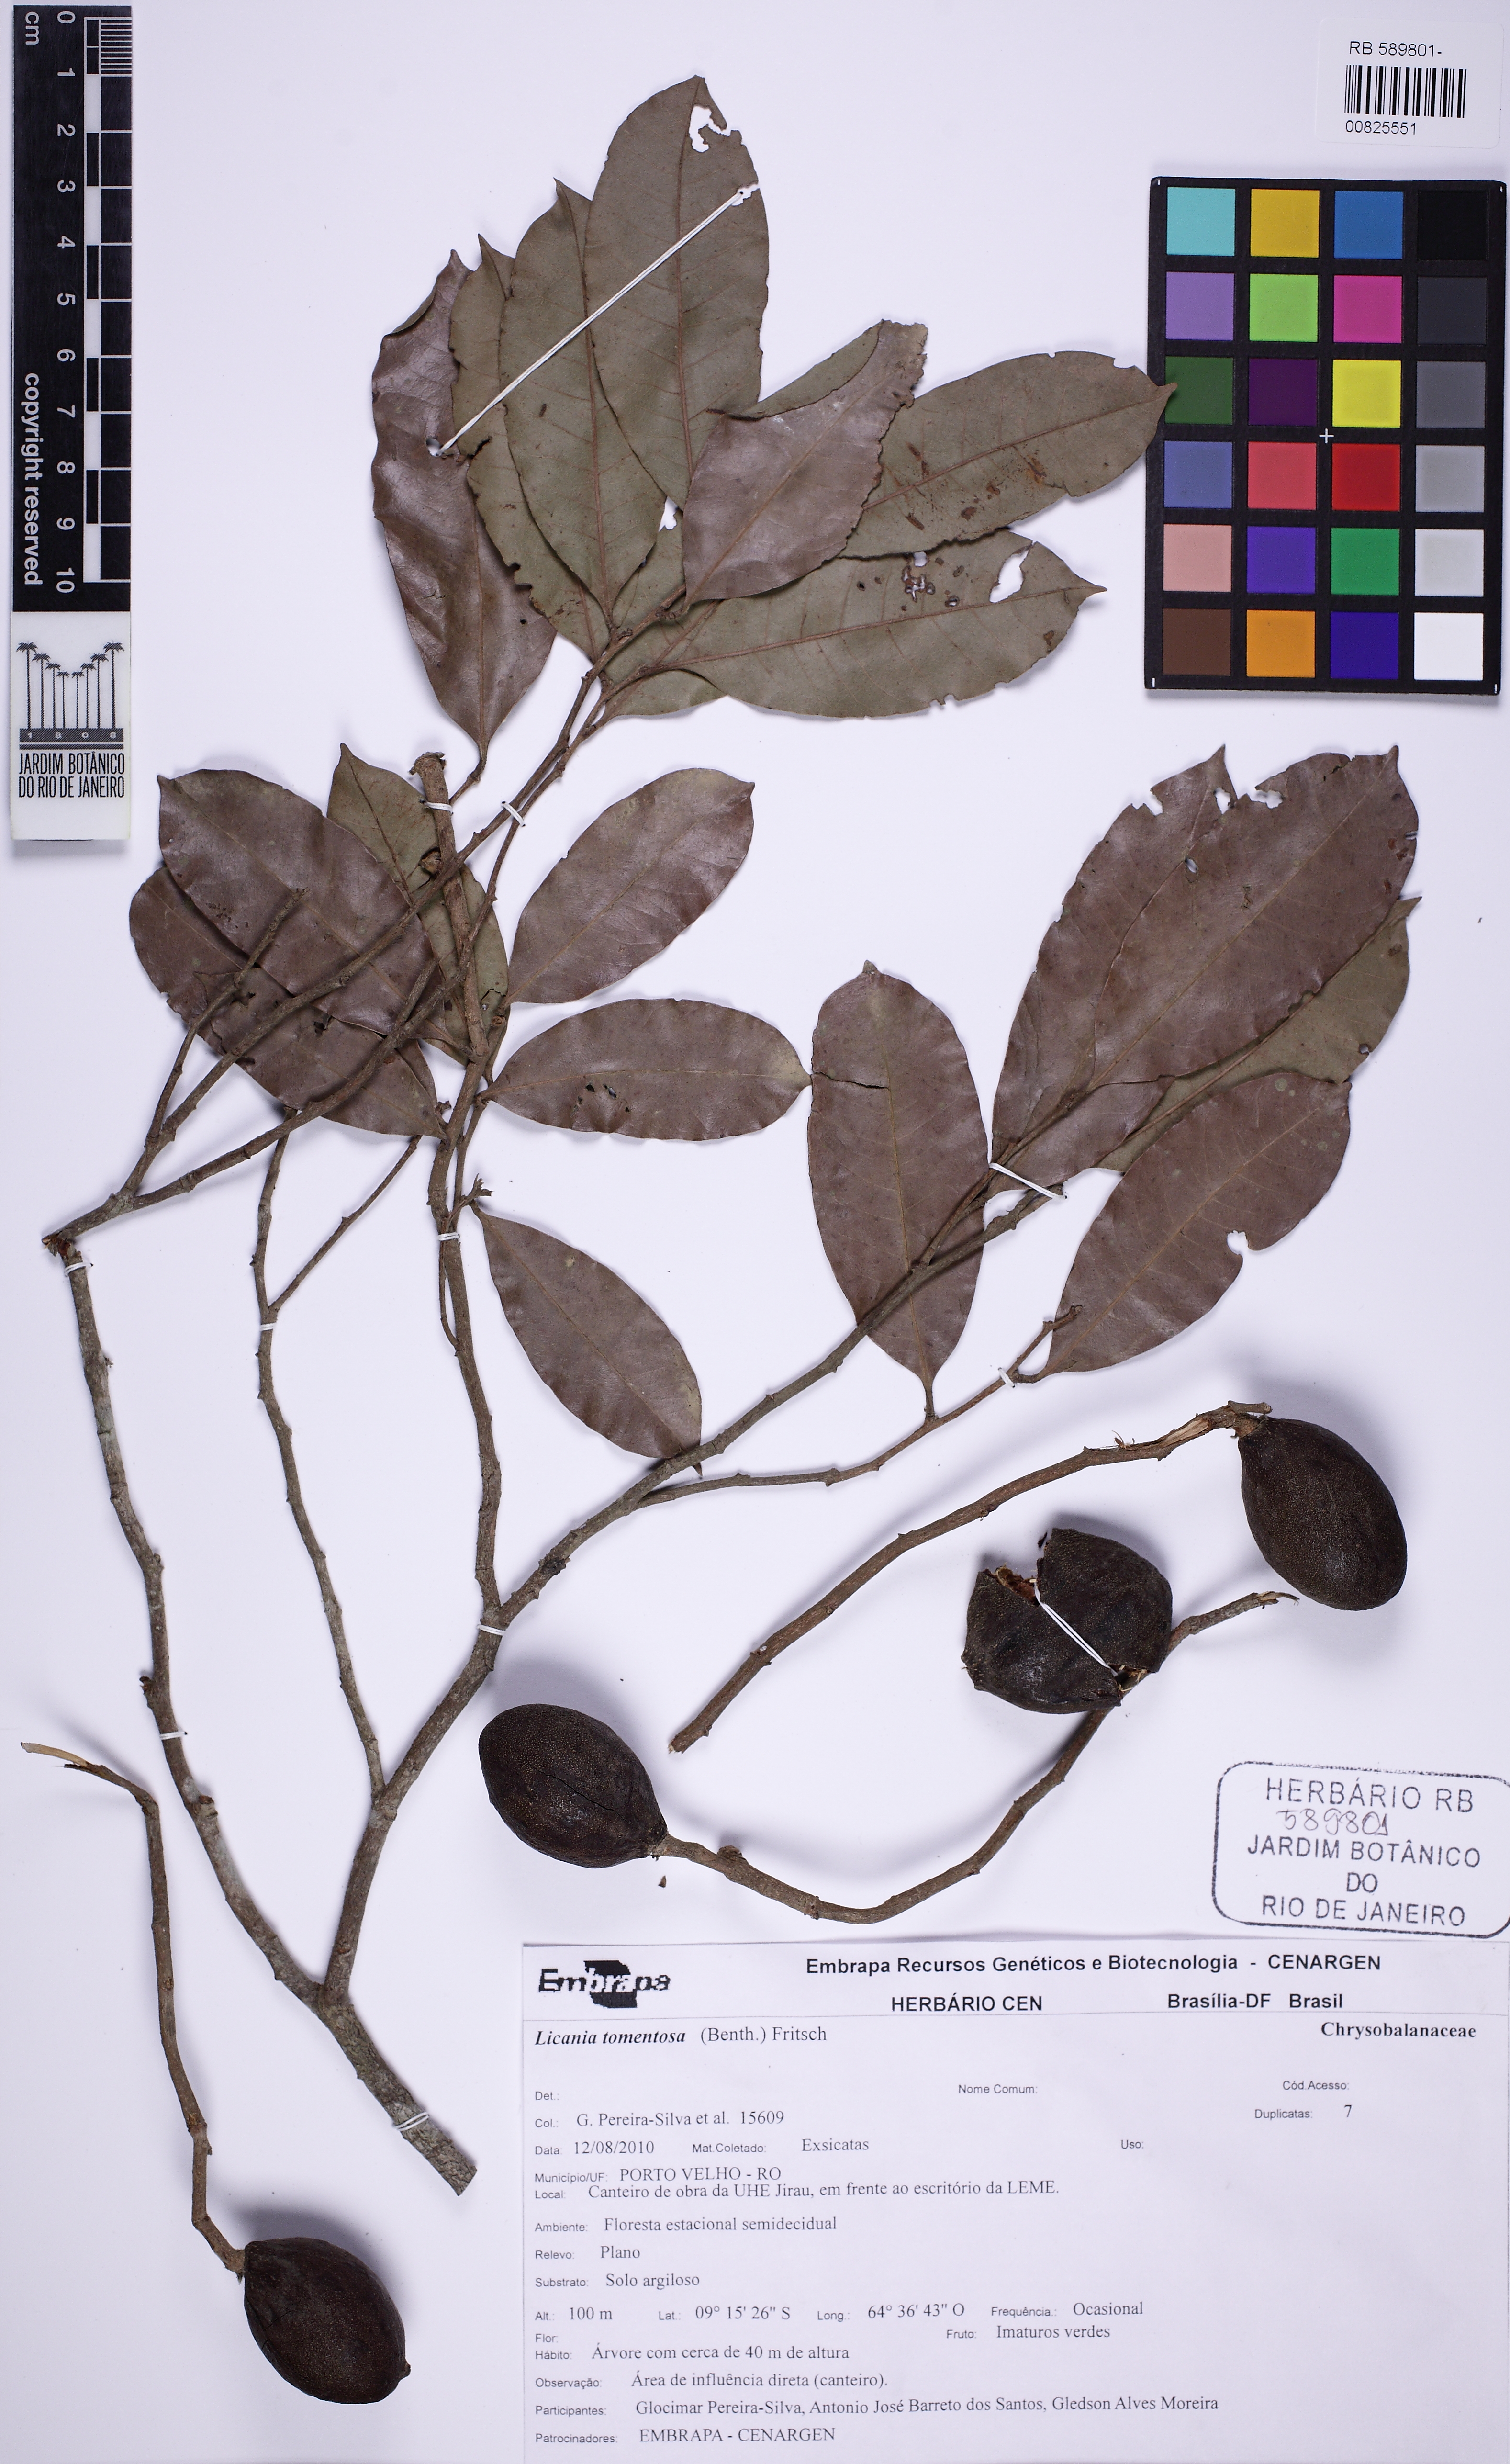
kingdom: Plantae
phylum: Tracheophyta
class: Magnoliopsida
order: Malpighiales
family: Chrysobalanaceae
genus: Moquilea
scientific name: Moquilea tomentosa
